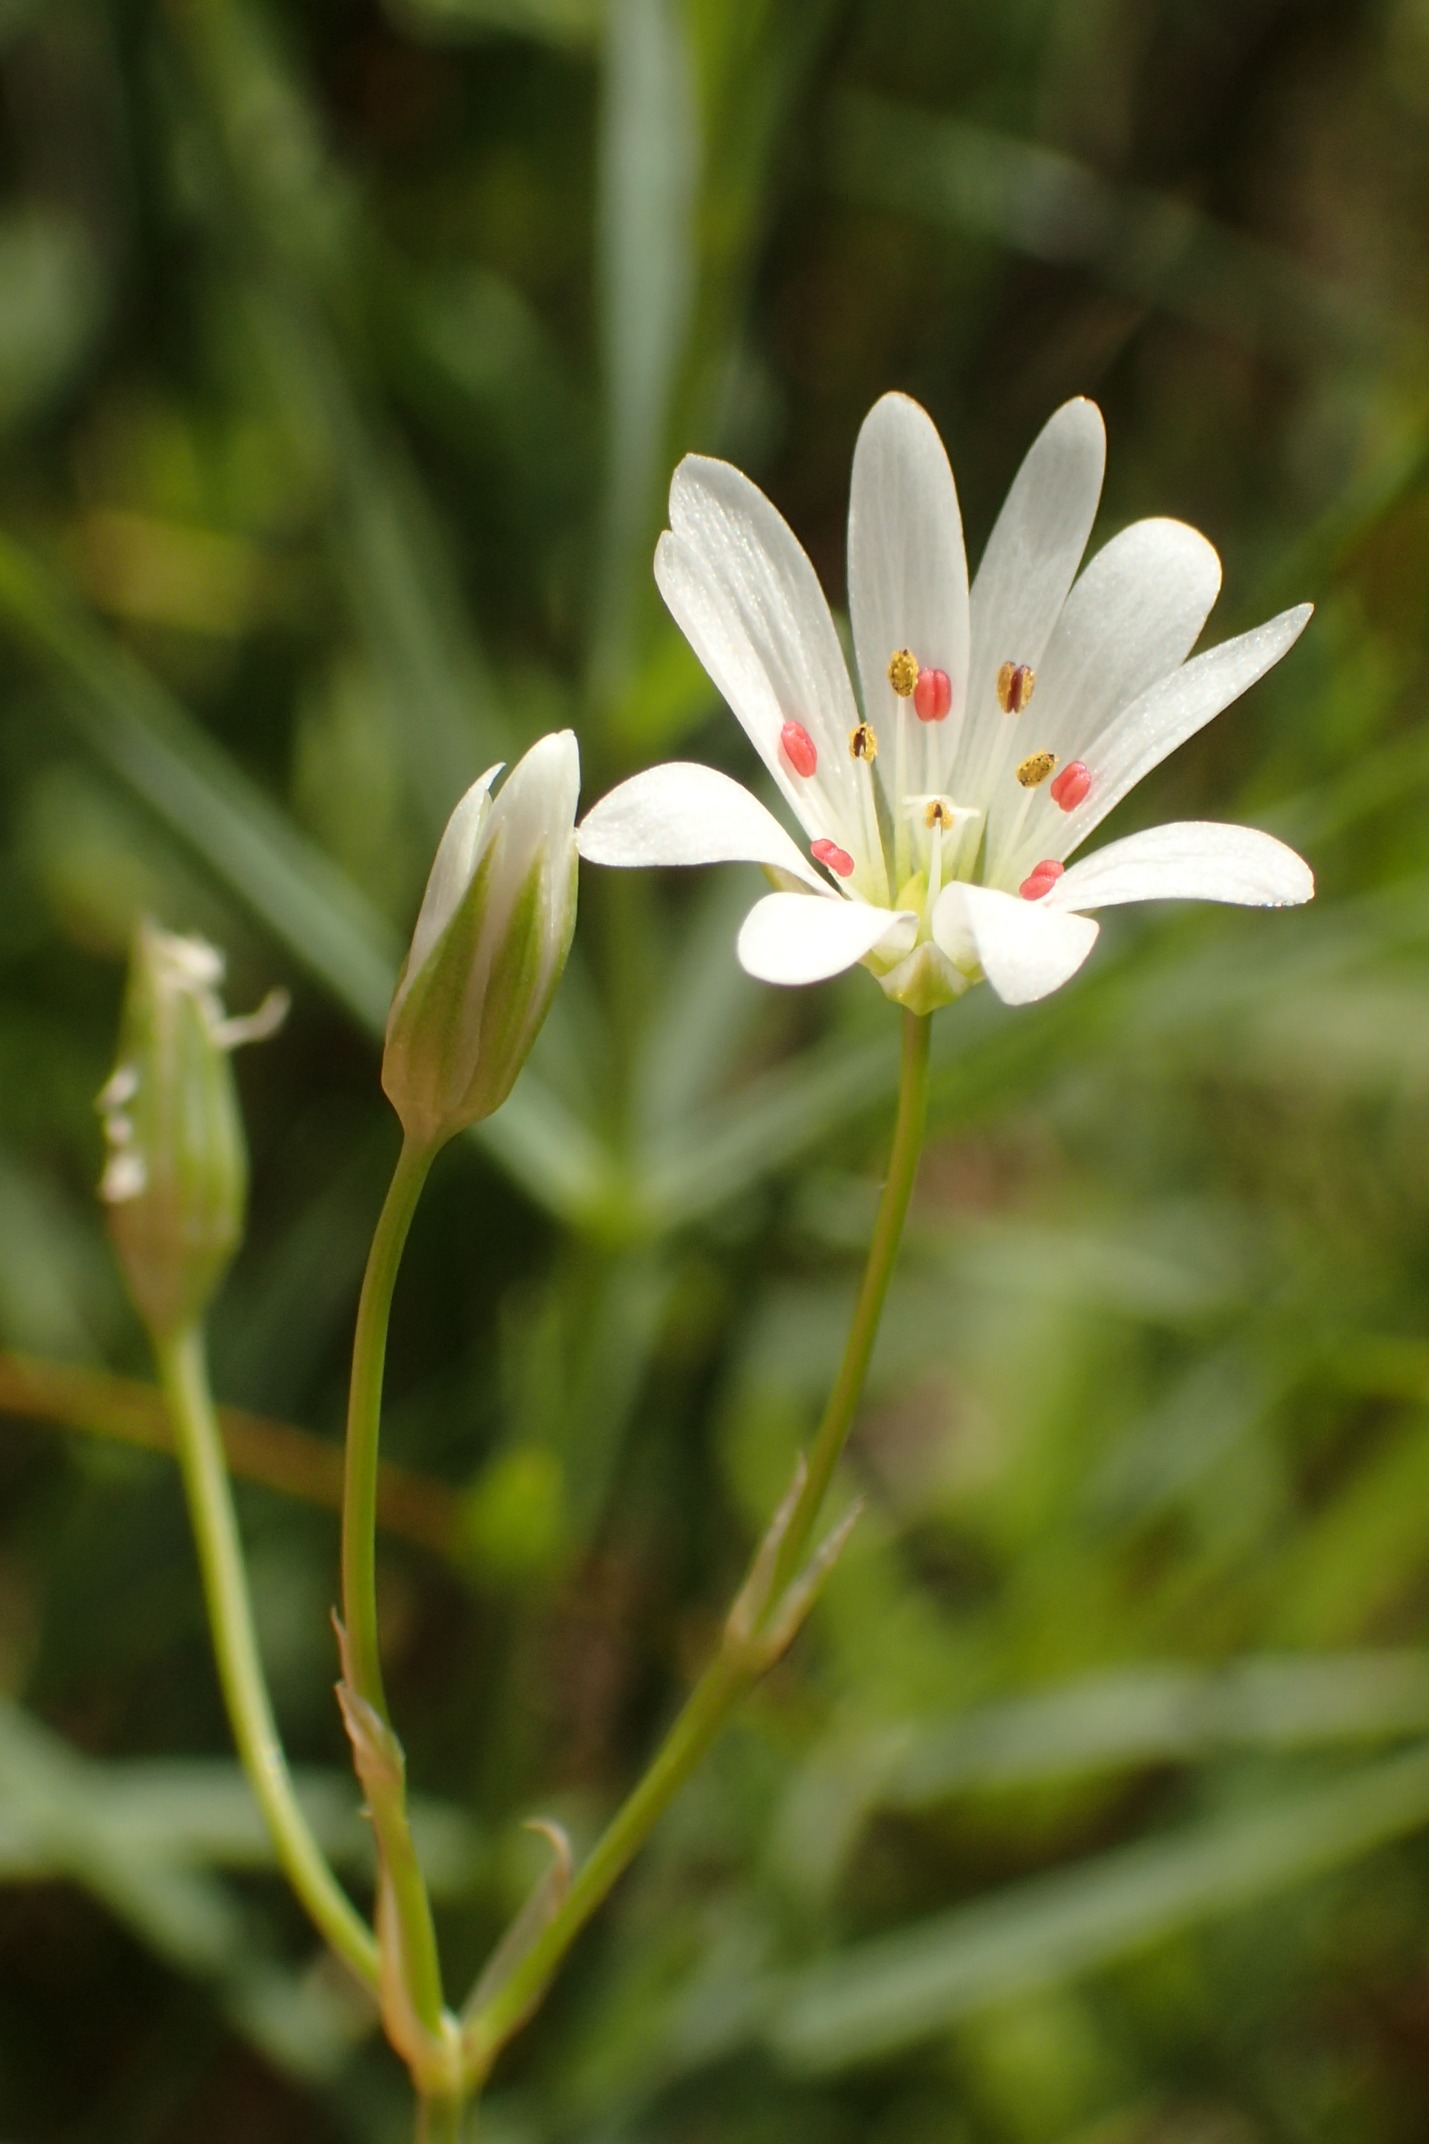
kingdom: Plantae
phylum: Tracheophyta
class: Magnoliopsida
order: Caryophyllales
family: Caryophyllaceae
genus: Stellaria
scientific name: Stellaria palustris
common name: Kær-fladstjerne
